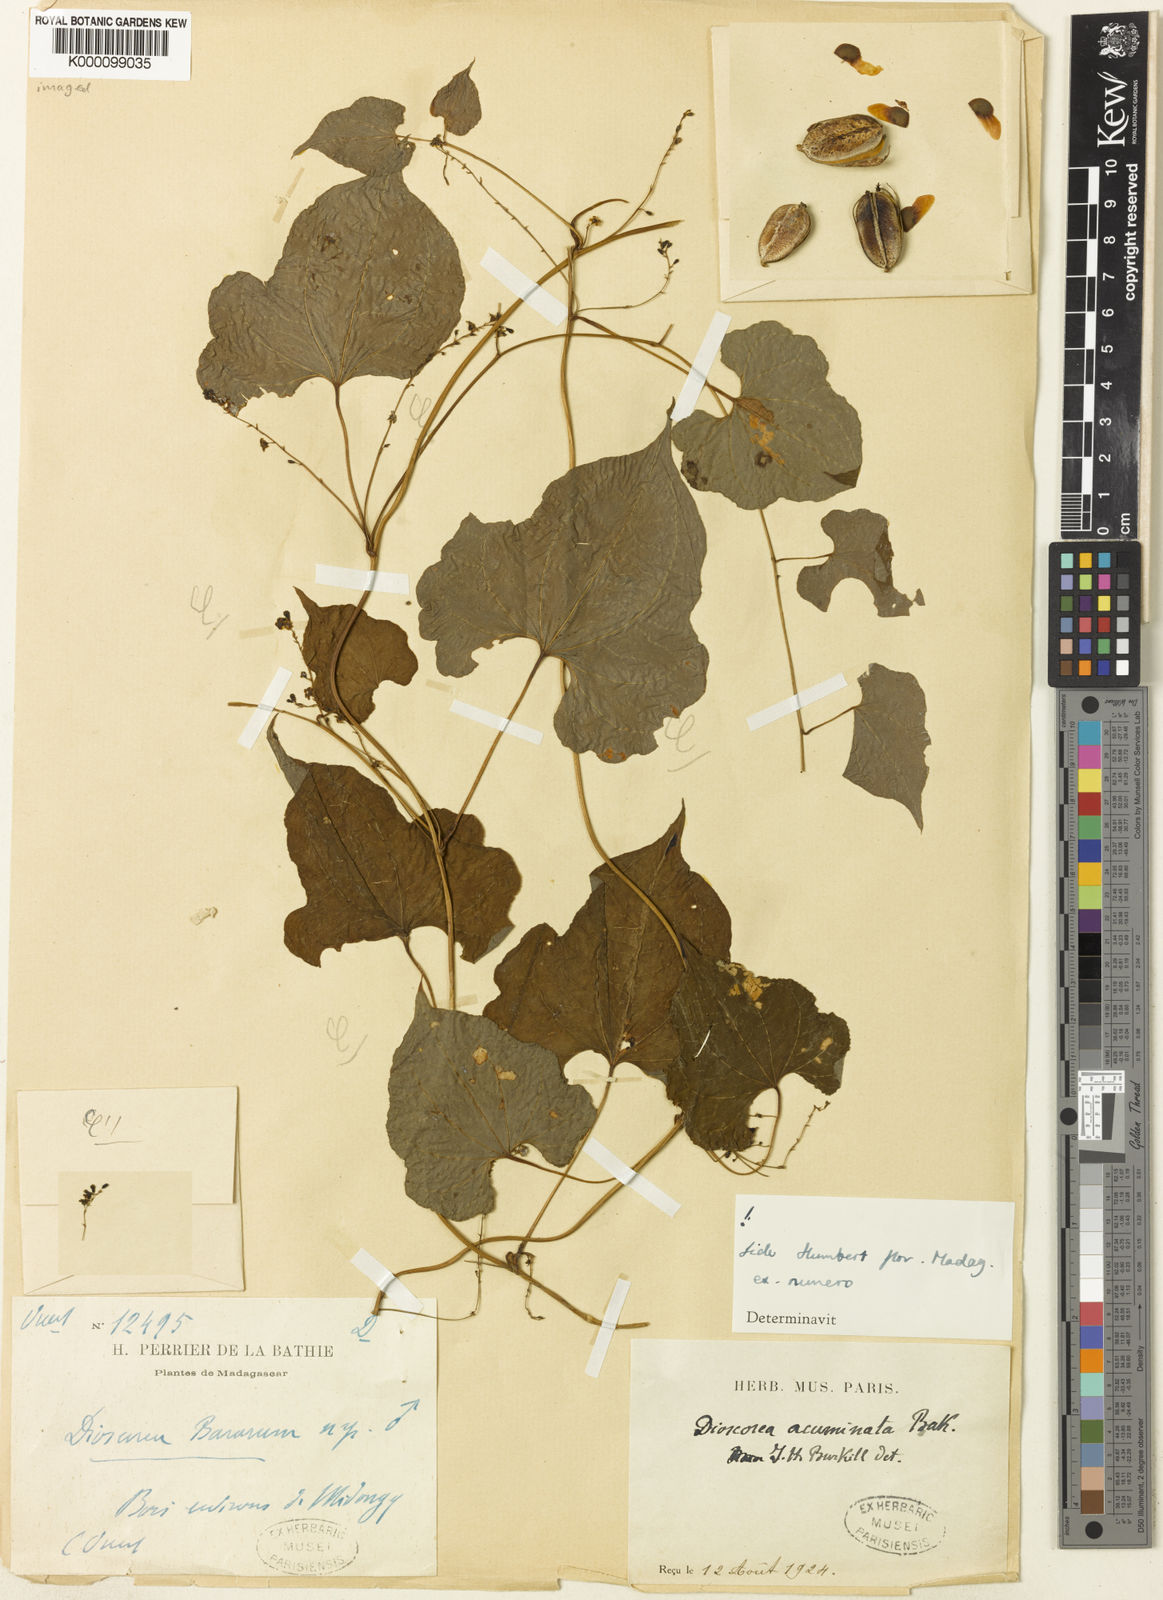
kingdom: Plantae
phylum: Tracheophyta
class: Liliopsida
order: Dioscoreales
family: Dioscoreaceae
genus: Dioscorea
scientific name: Dioscorea acuminata
